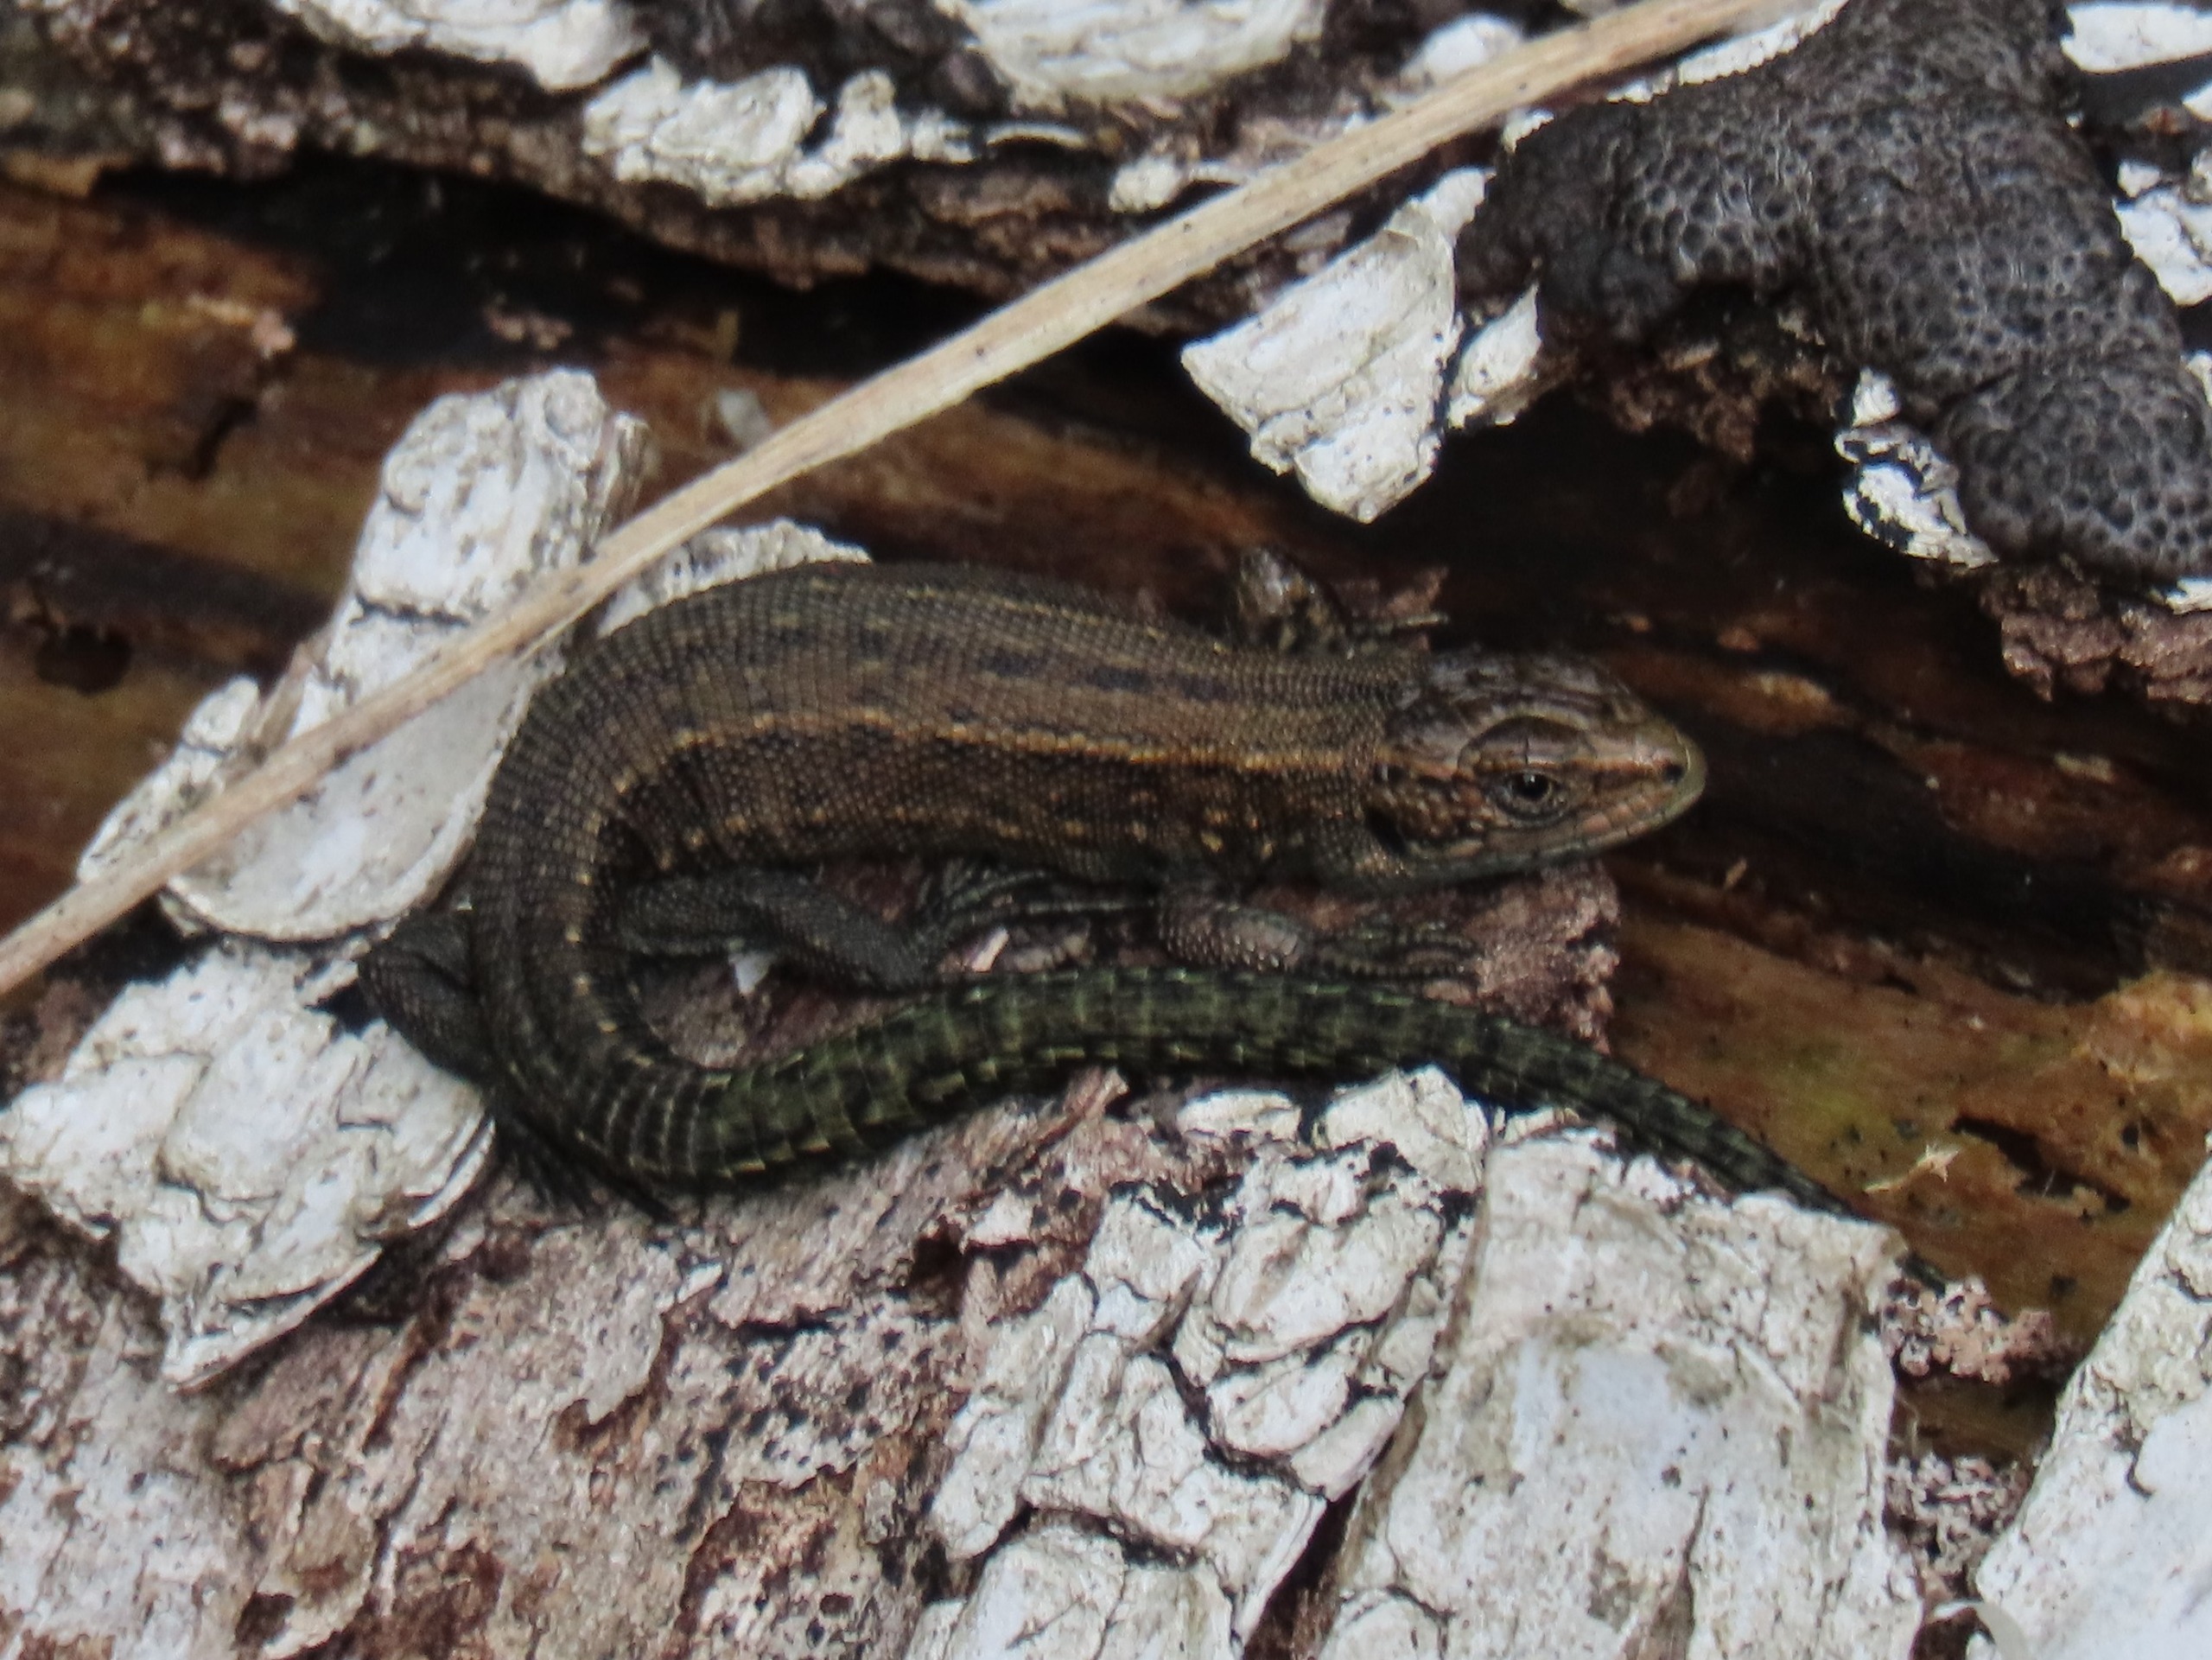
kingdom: Animalia
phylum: Chordata
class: Squamata
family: Lacertidae
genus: Zootoca
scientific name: Zootoca vivipara
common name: Skovfirben
